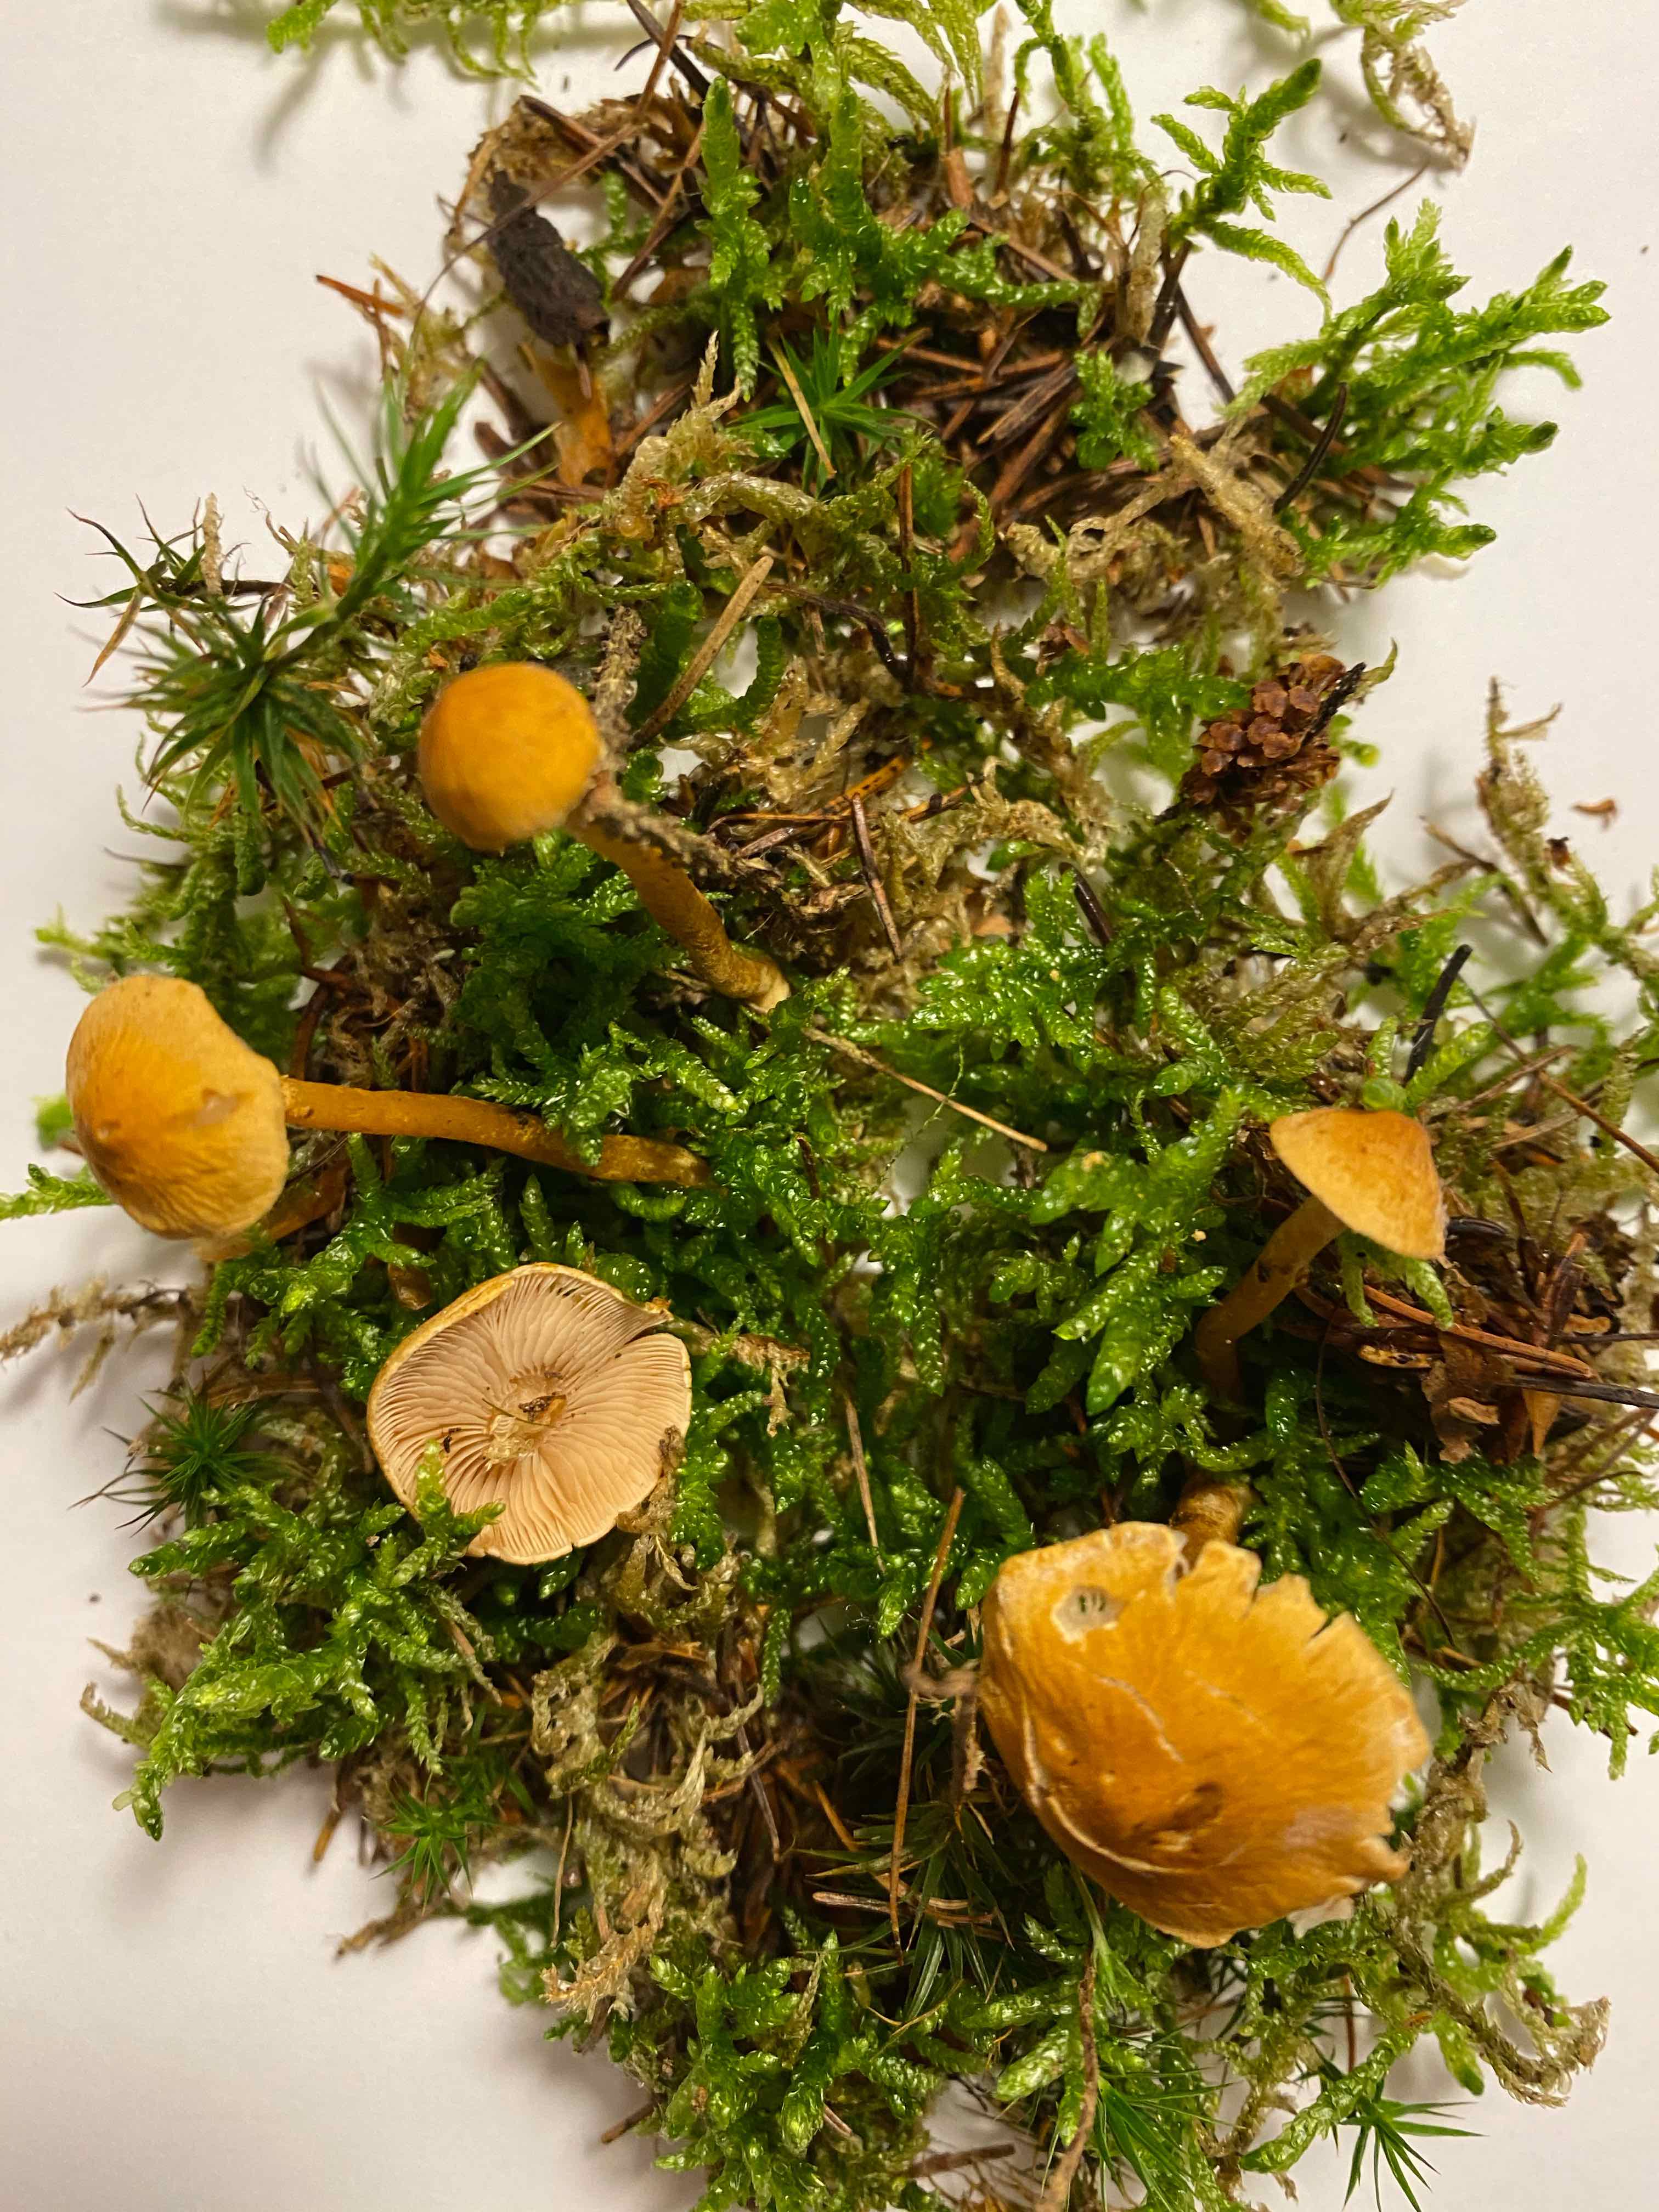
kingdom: Fungi
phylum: Basidiomycota
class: Agaricomycetes
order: Agaricales
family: Tricholomataceae
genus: Cystoderma
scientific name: Cystoderma amianthinum
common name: okkergul grynhat
